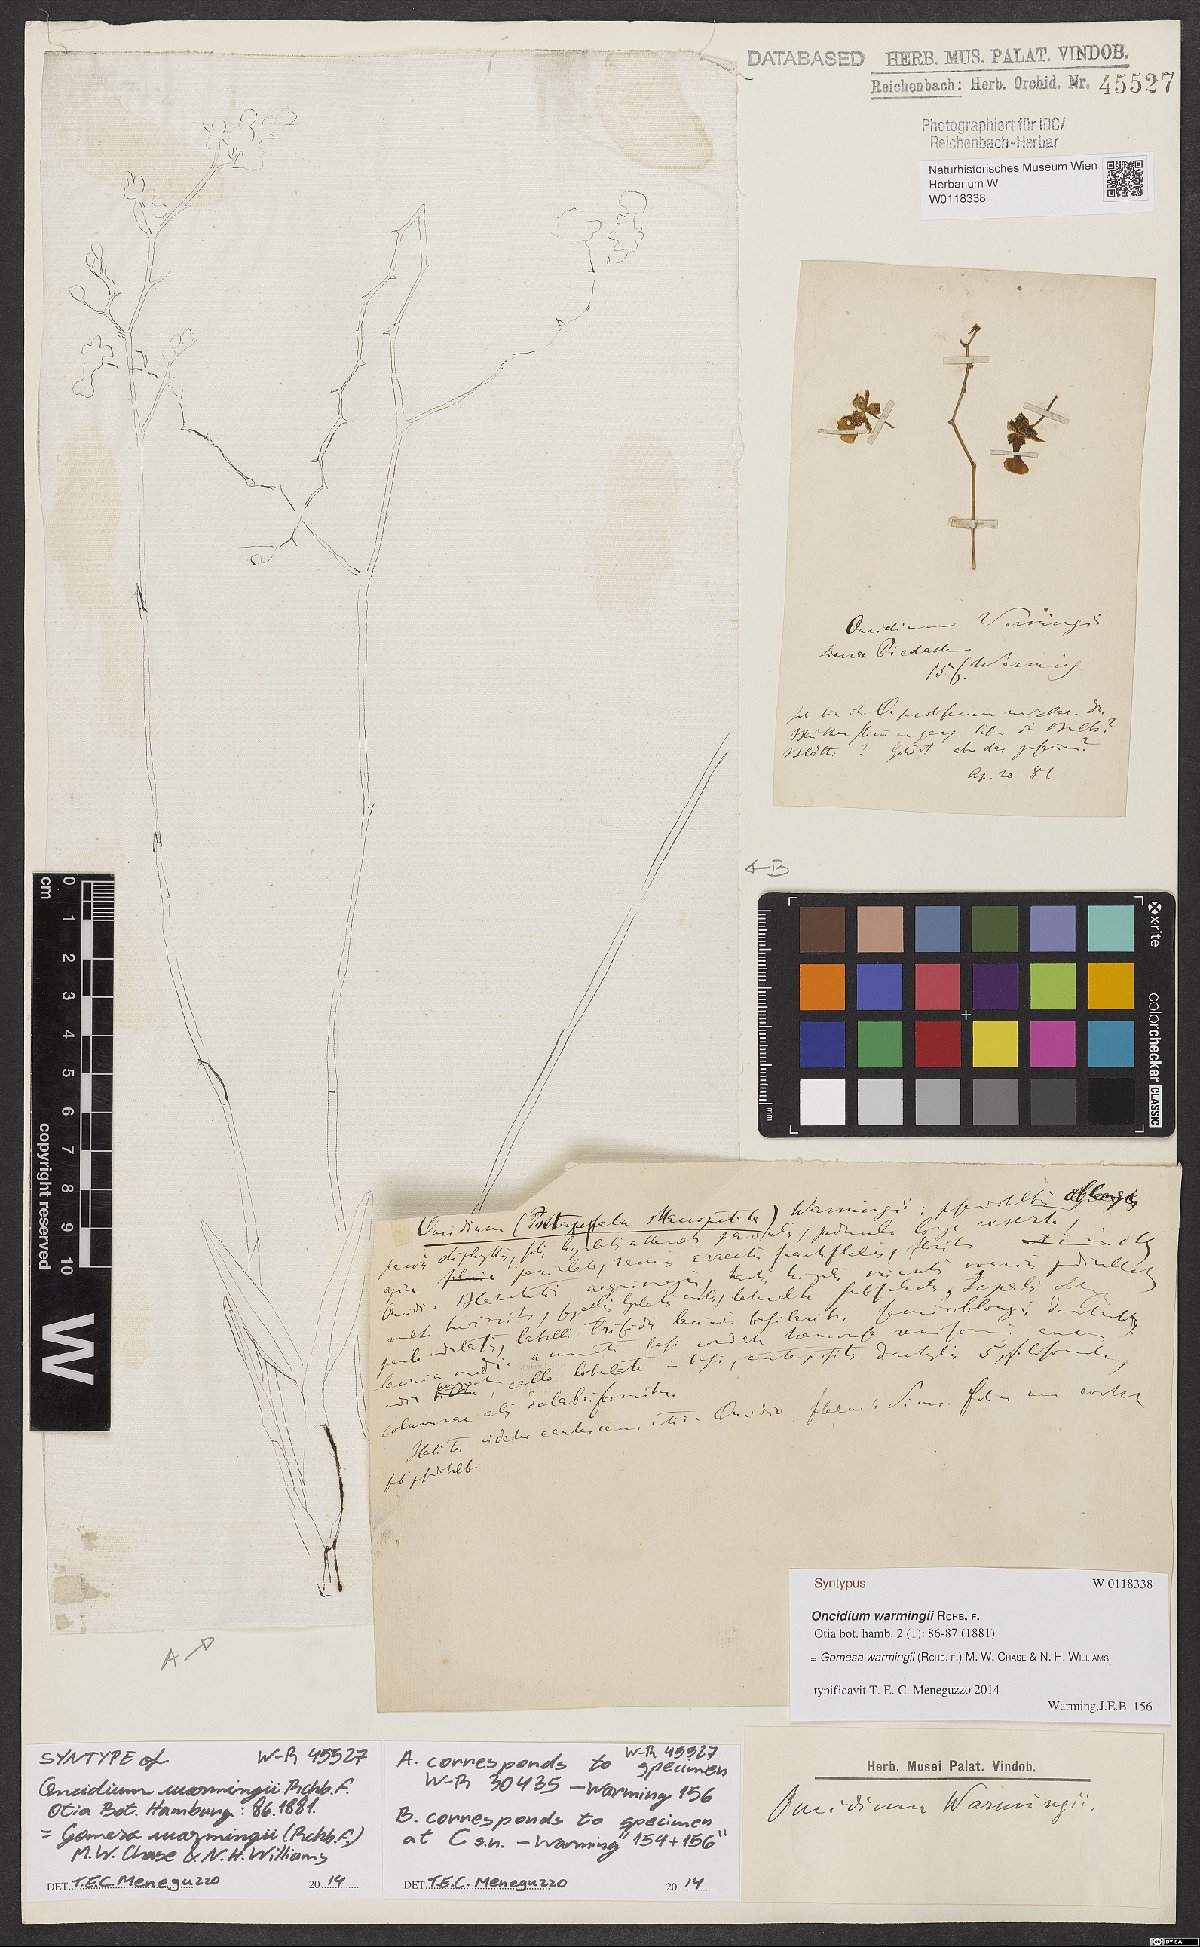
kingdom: Plantae
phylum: Tracheophyta
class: Liliopsida
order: Asparagales
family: Orchidaceae
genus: Gomesa
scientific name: Gomesa warmingii
